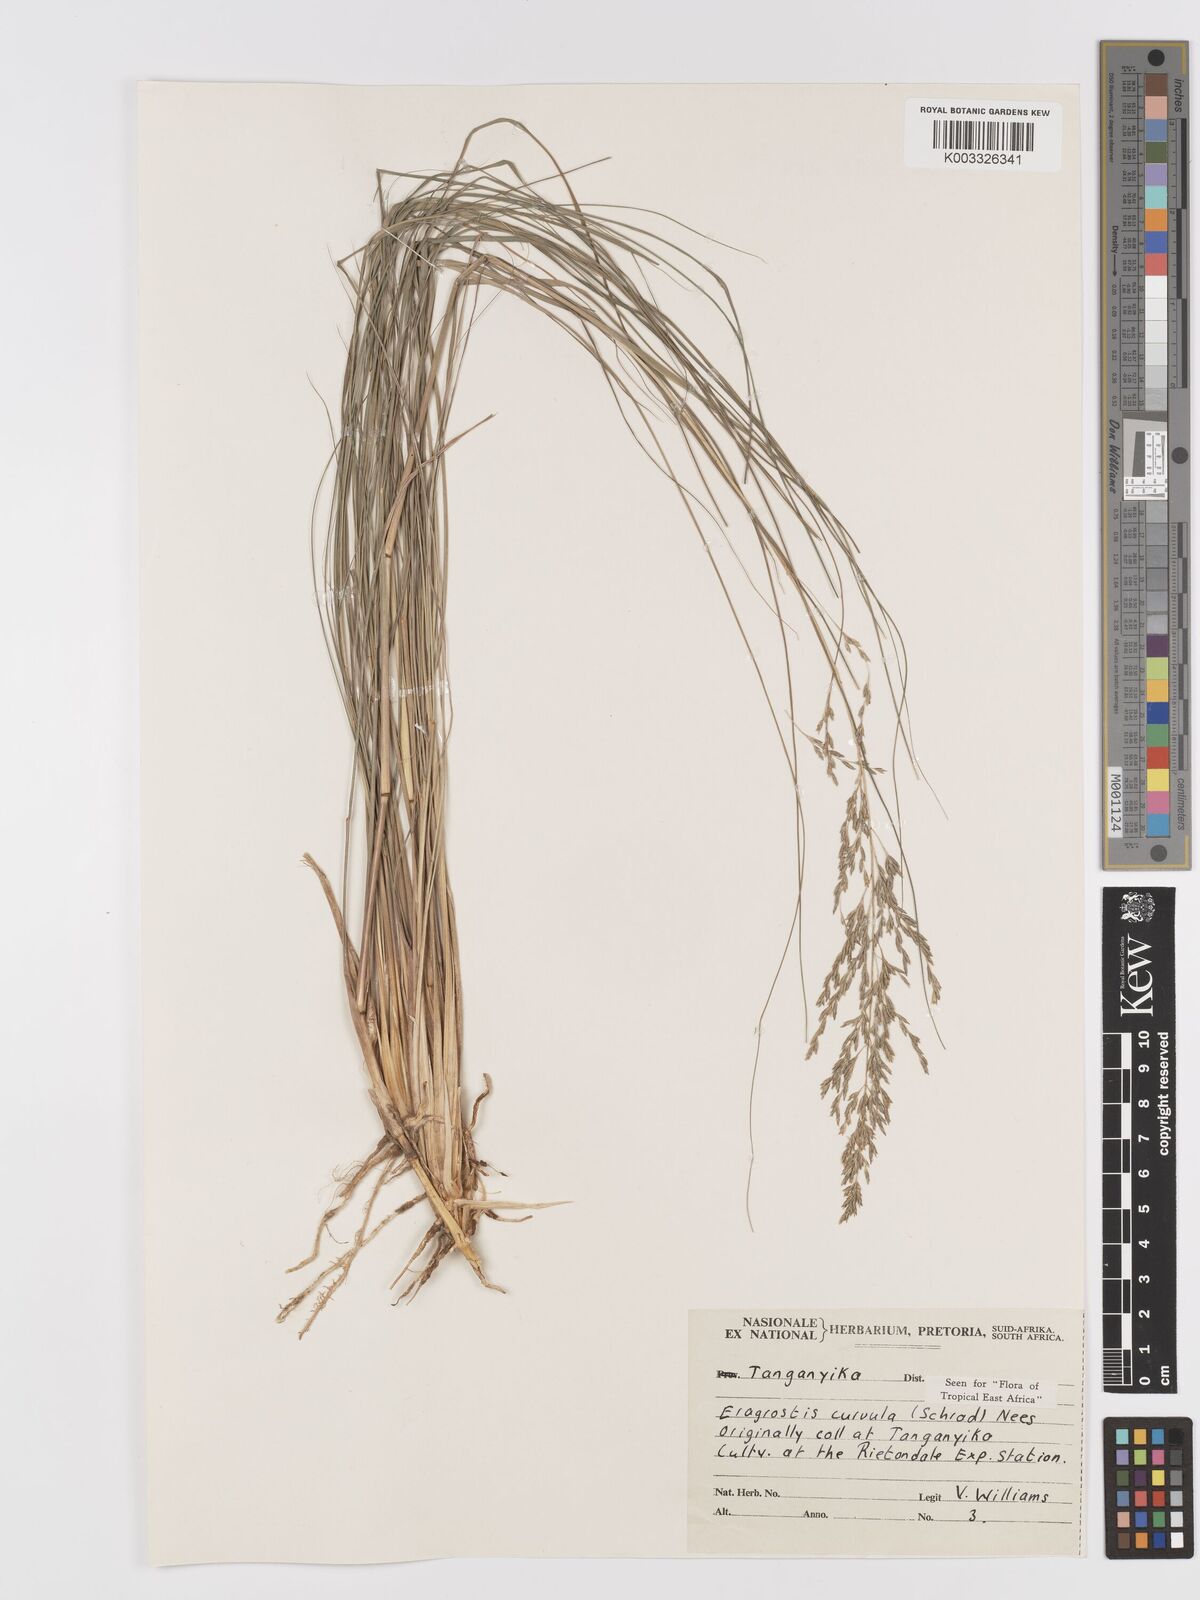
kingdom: Plantae
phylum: Tracheophyta
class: Liliopsida
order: Poales
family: Poaceae
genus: Eragrostis
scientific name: Eragrostis curvula
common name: African love-grass
